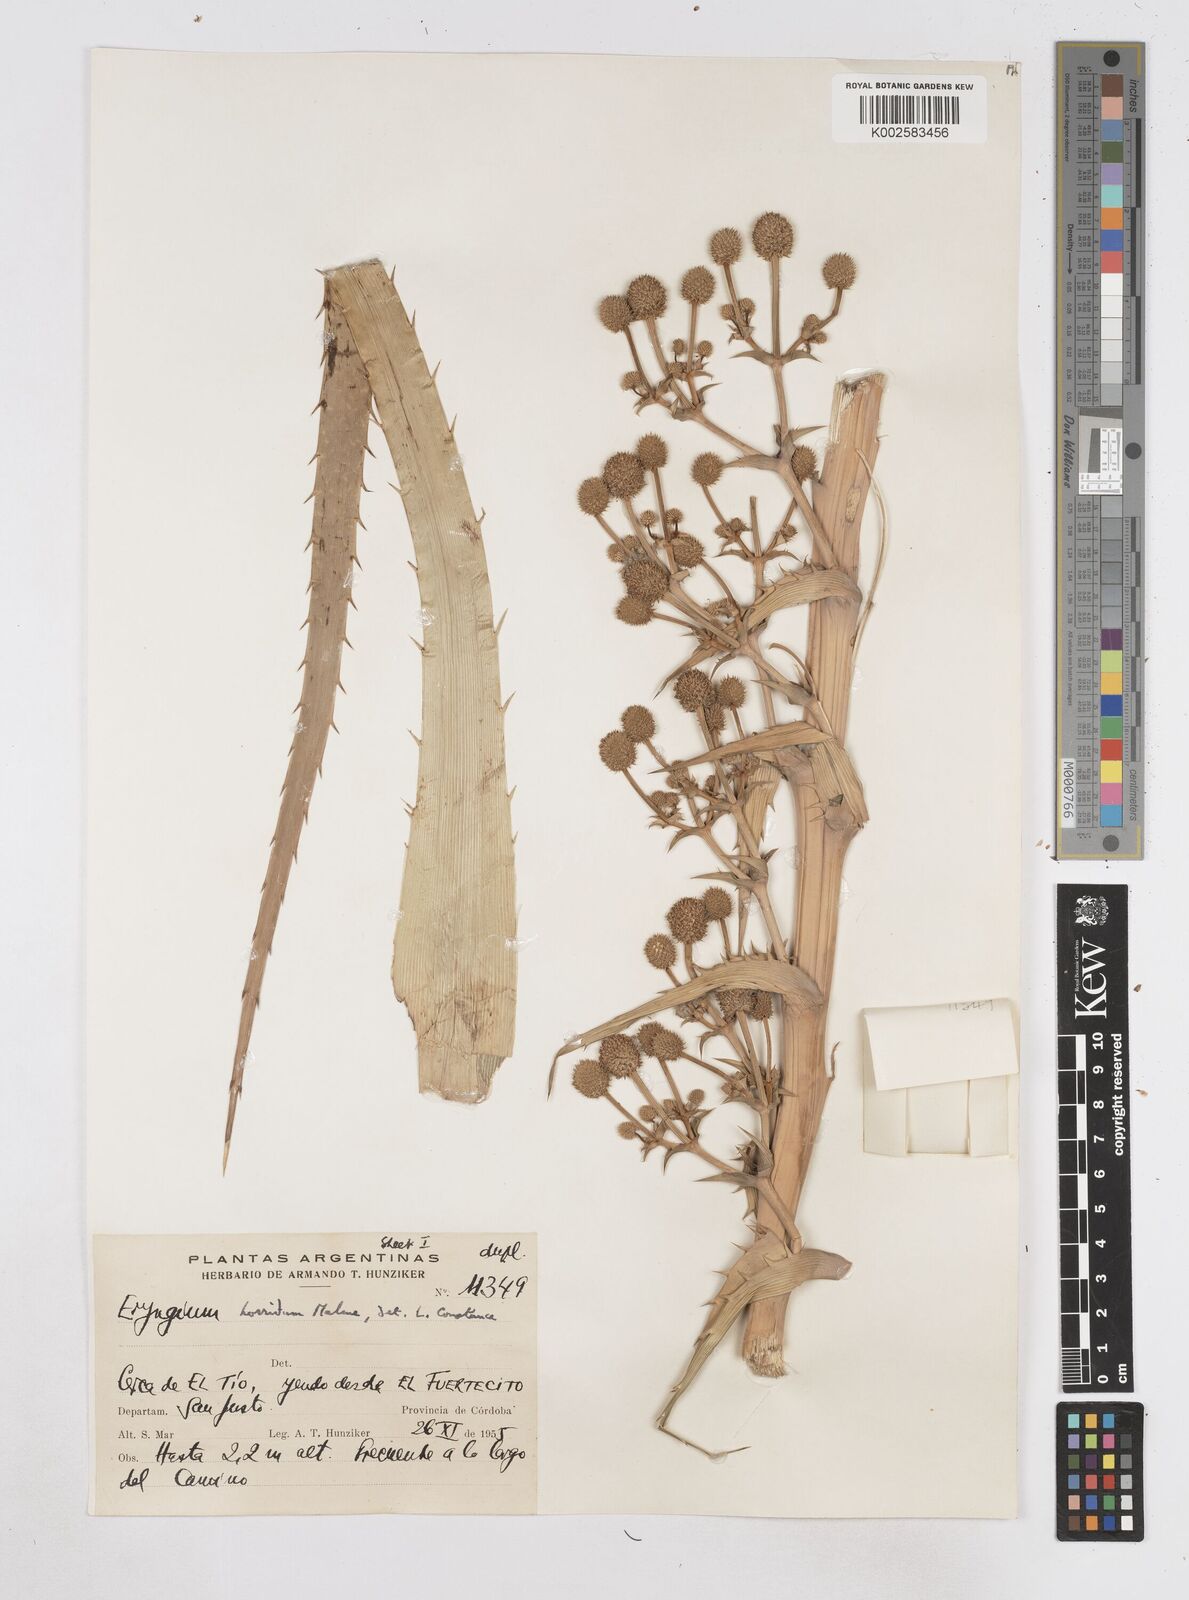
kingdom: Plantae
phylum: Tracheophyta
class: Magnoliopsida
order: Apiales
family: Apiaceae
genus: Eryngium
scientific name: Eryngium horridum
